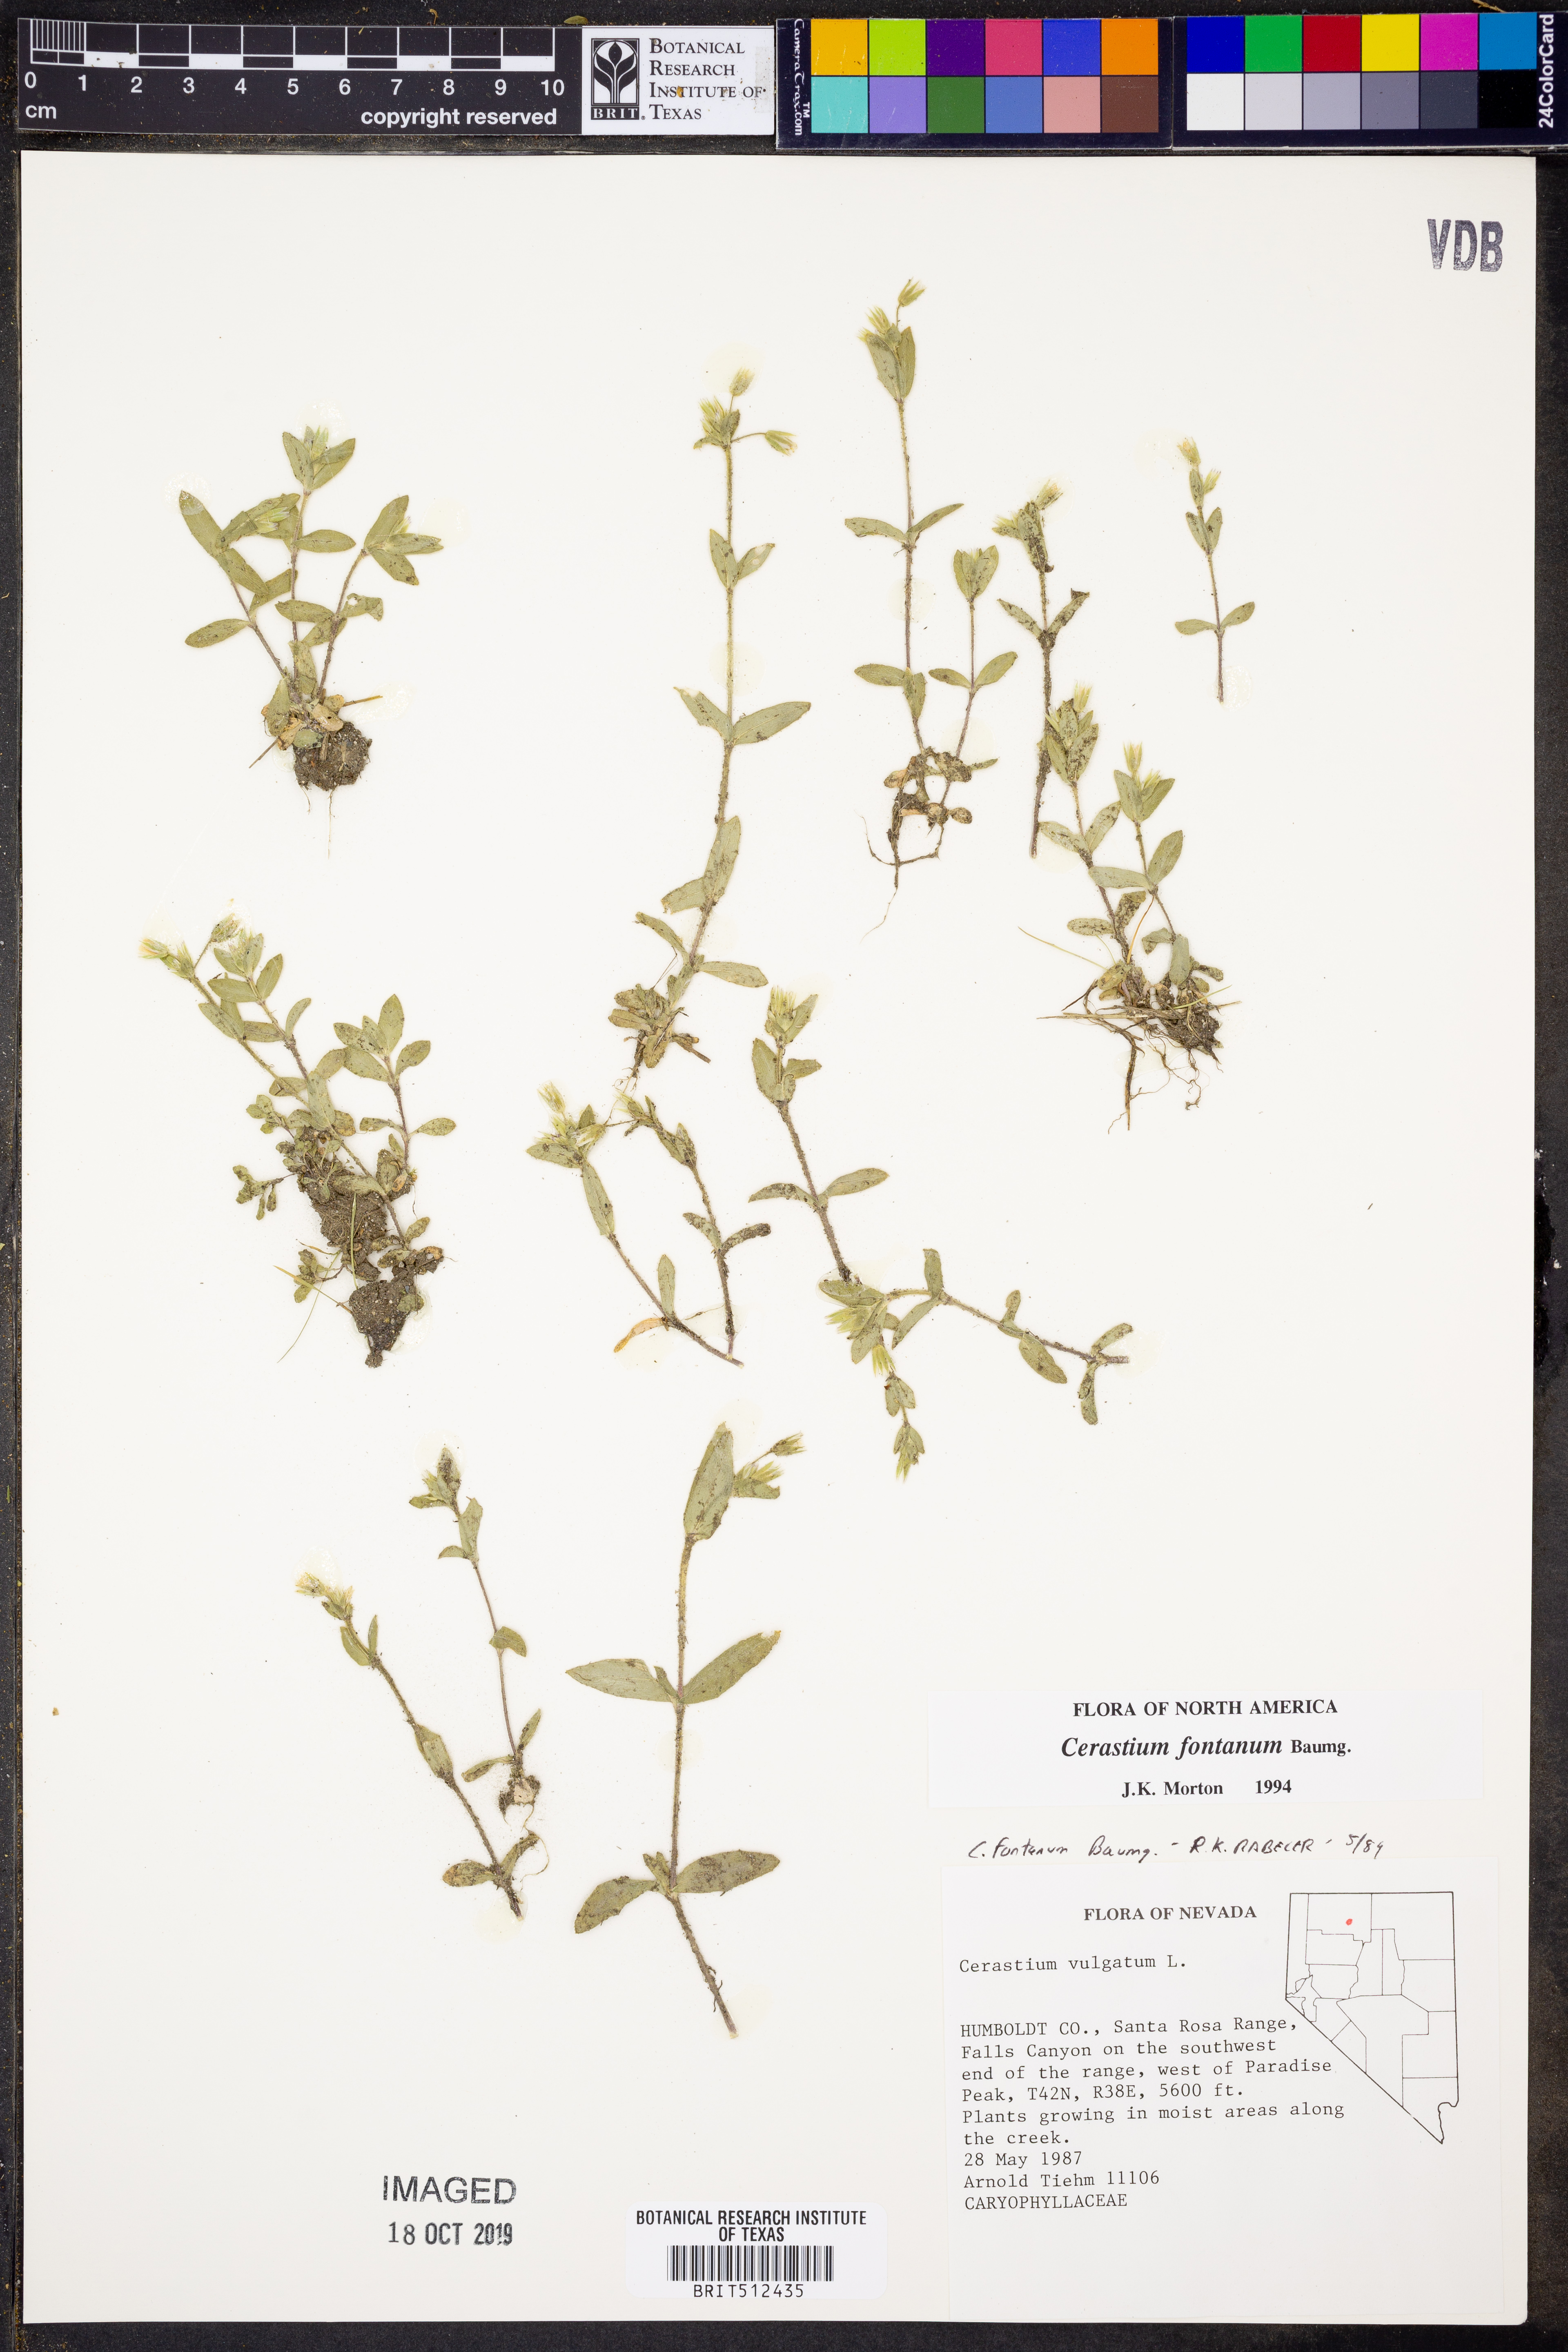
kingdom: Plantae
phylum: Tracheophyta
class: Magnoliopsida
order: Caryophyllales
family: Caryophyllaceae
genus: Cerastium
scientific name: Cerastium fontanum
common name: Common mouse-ear
